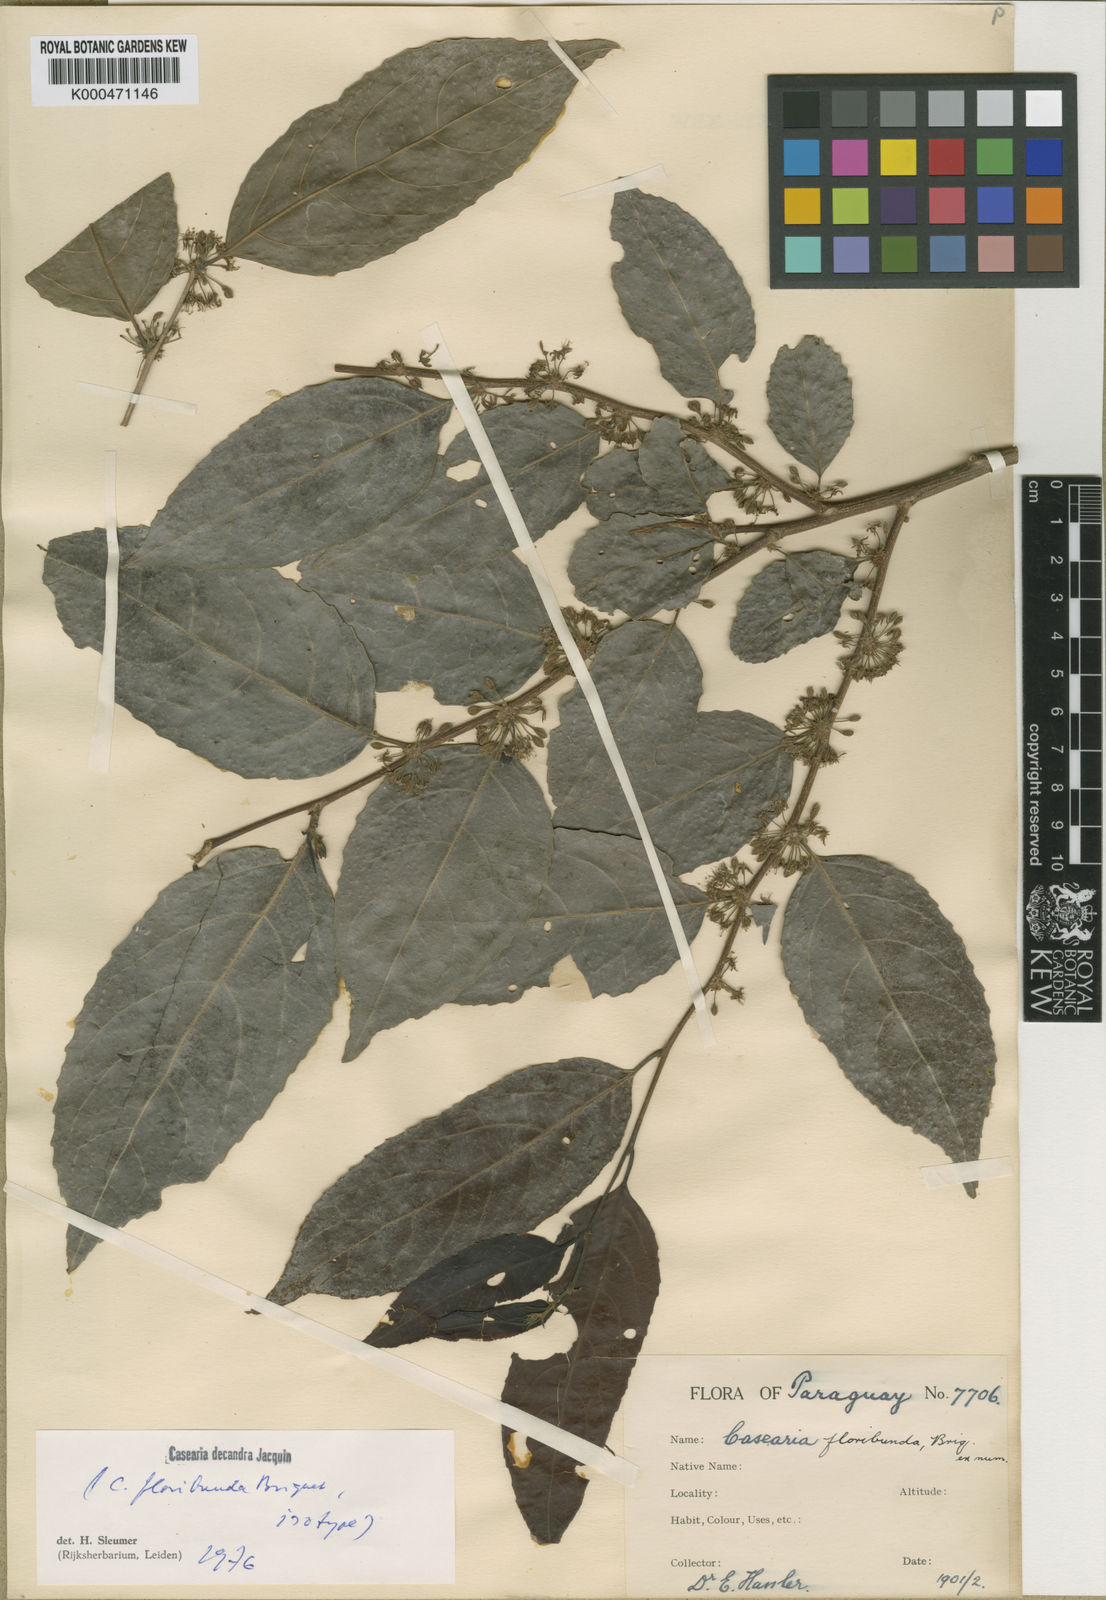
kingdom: Plantae
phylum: Tracheophyta
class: Magnoliopsida
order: Malpighiales
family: Salicaceae
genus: Casearia
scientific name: Casearia decandra
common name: Crack open
